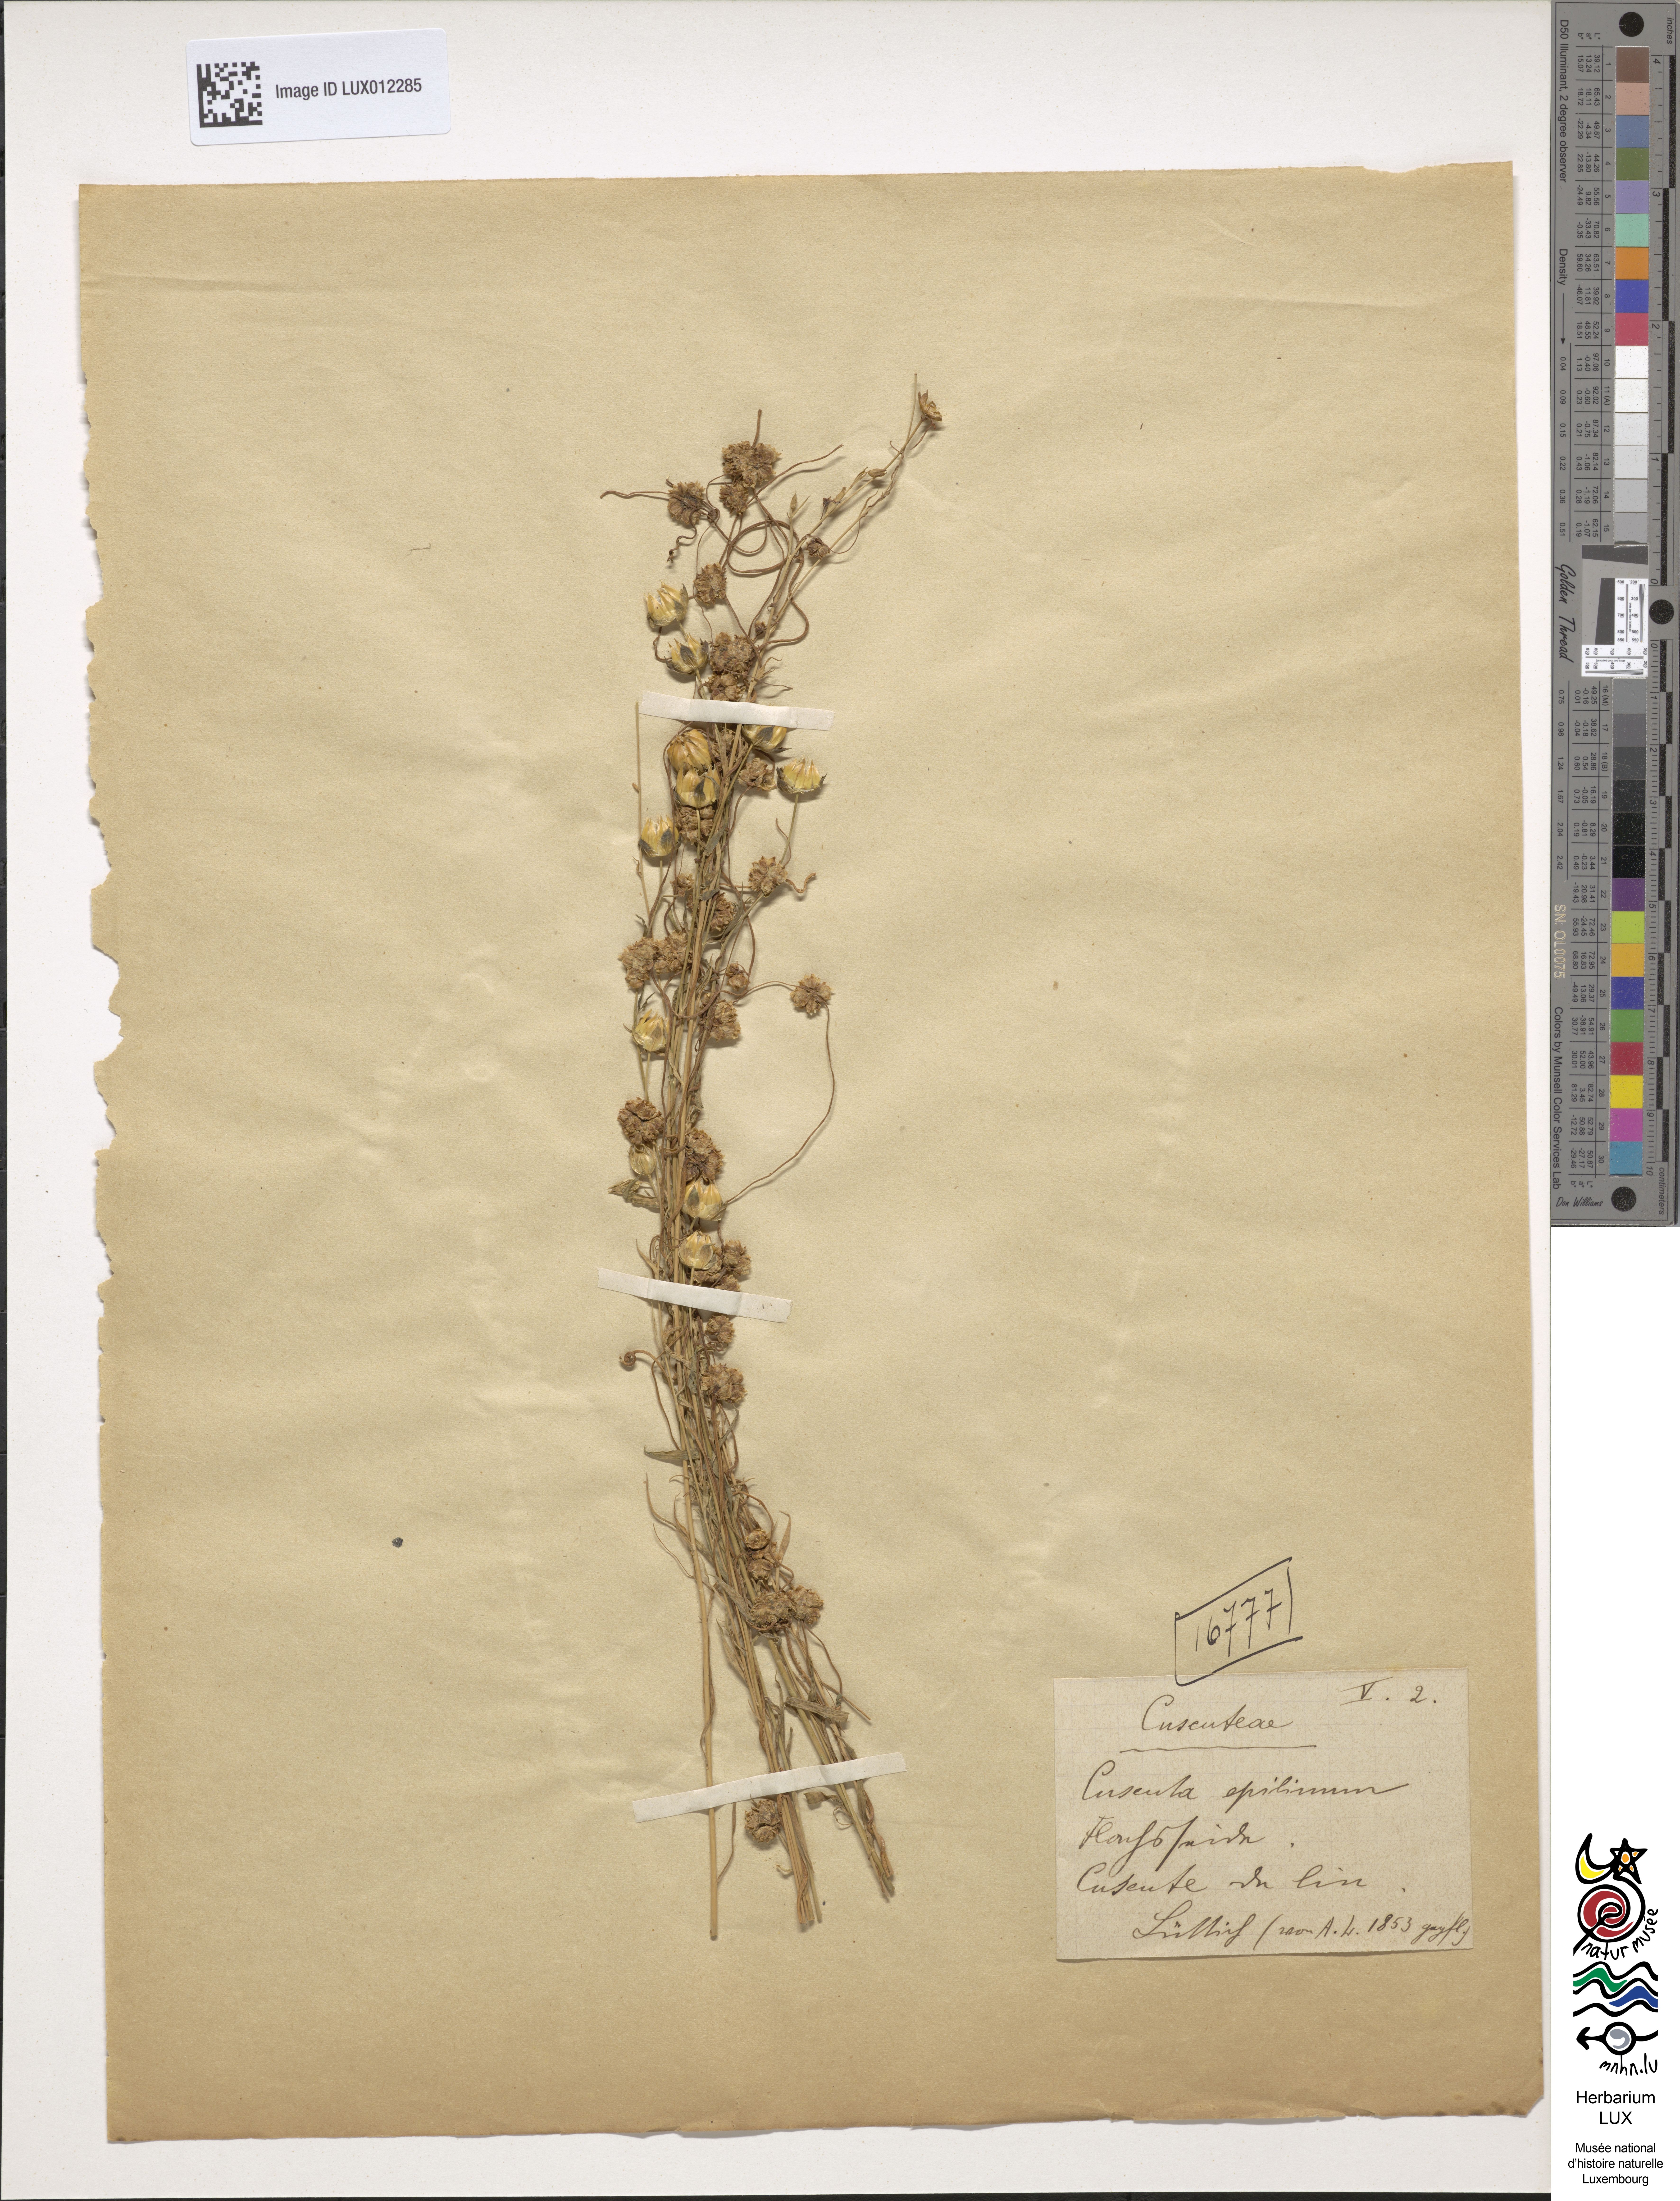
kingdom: Plantae
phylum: Tracheophyta
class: Magnoliopsida
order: Solanales
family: Convolvulaceae
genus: Cuscuta
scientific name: Cuscuta epilinum
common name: Flax dodder
